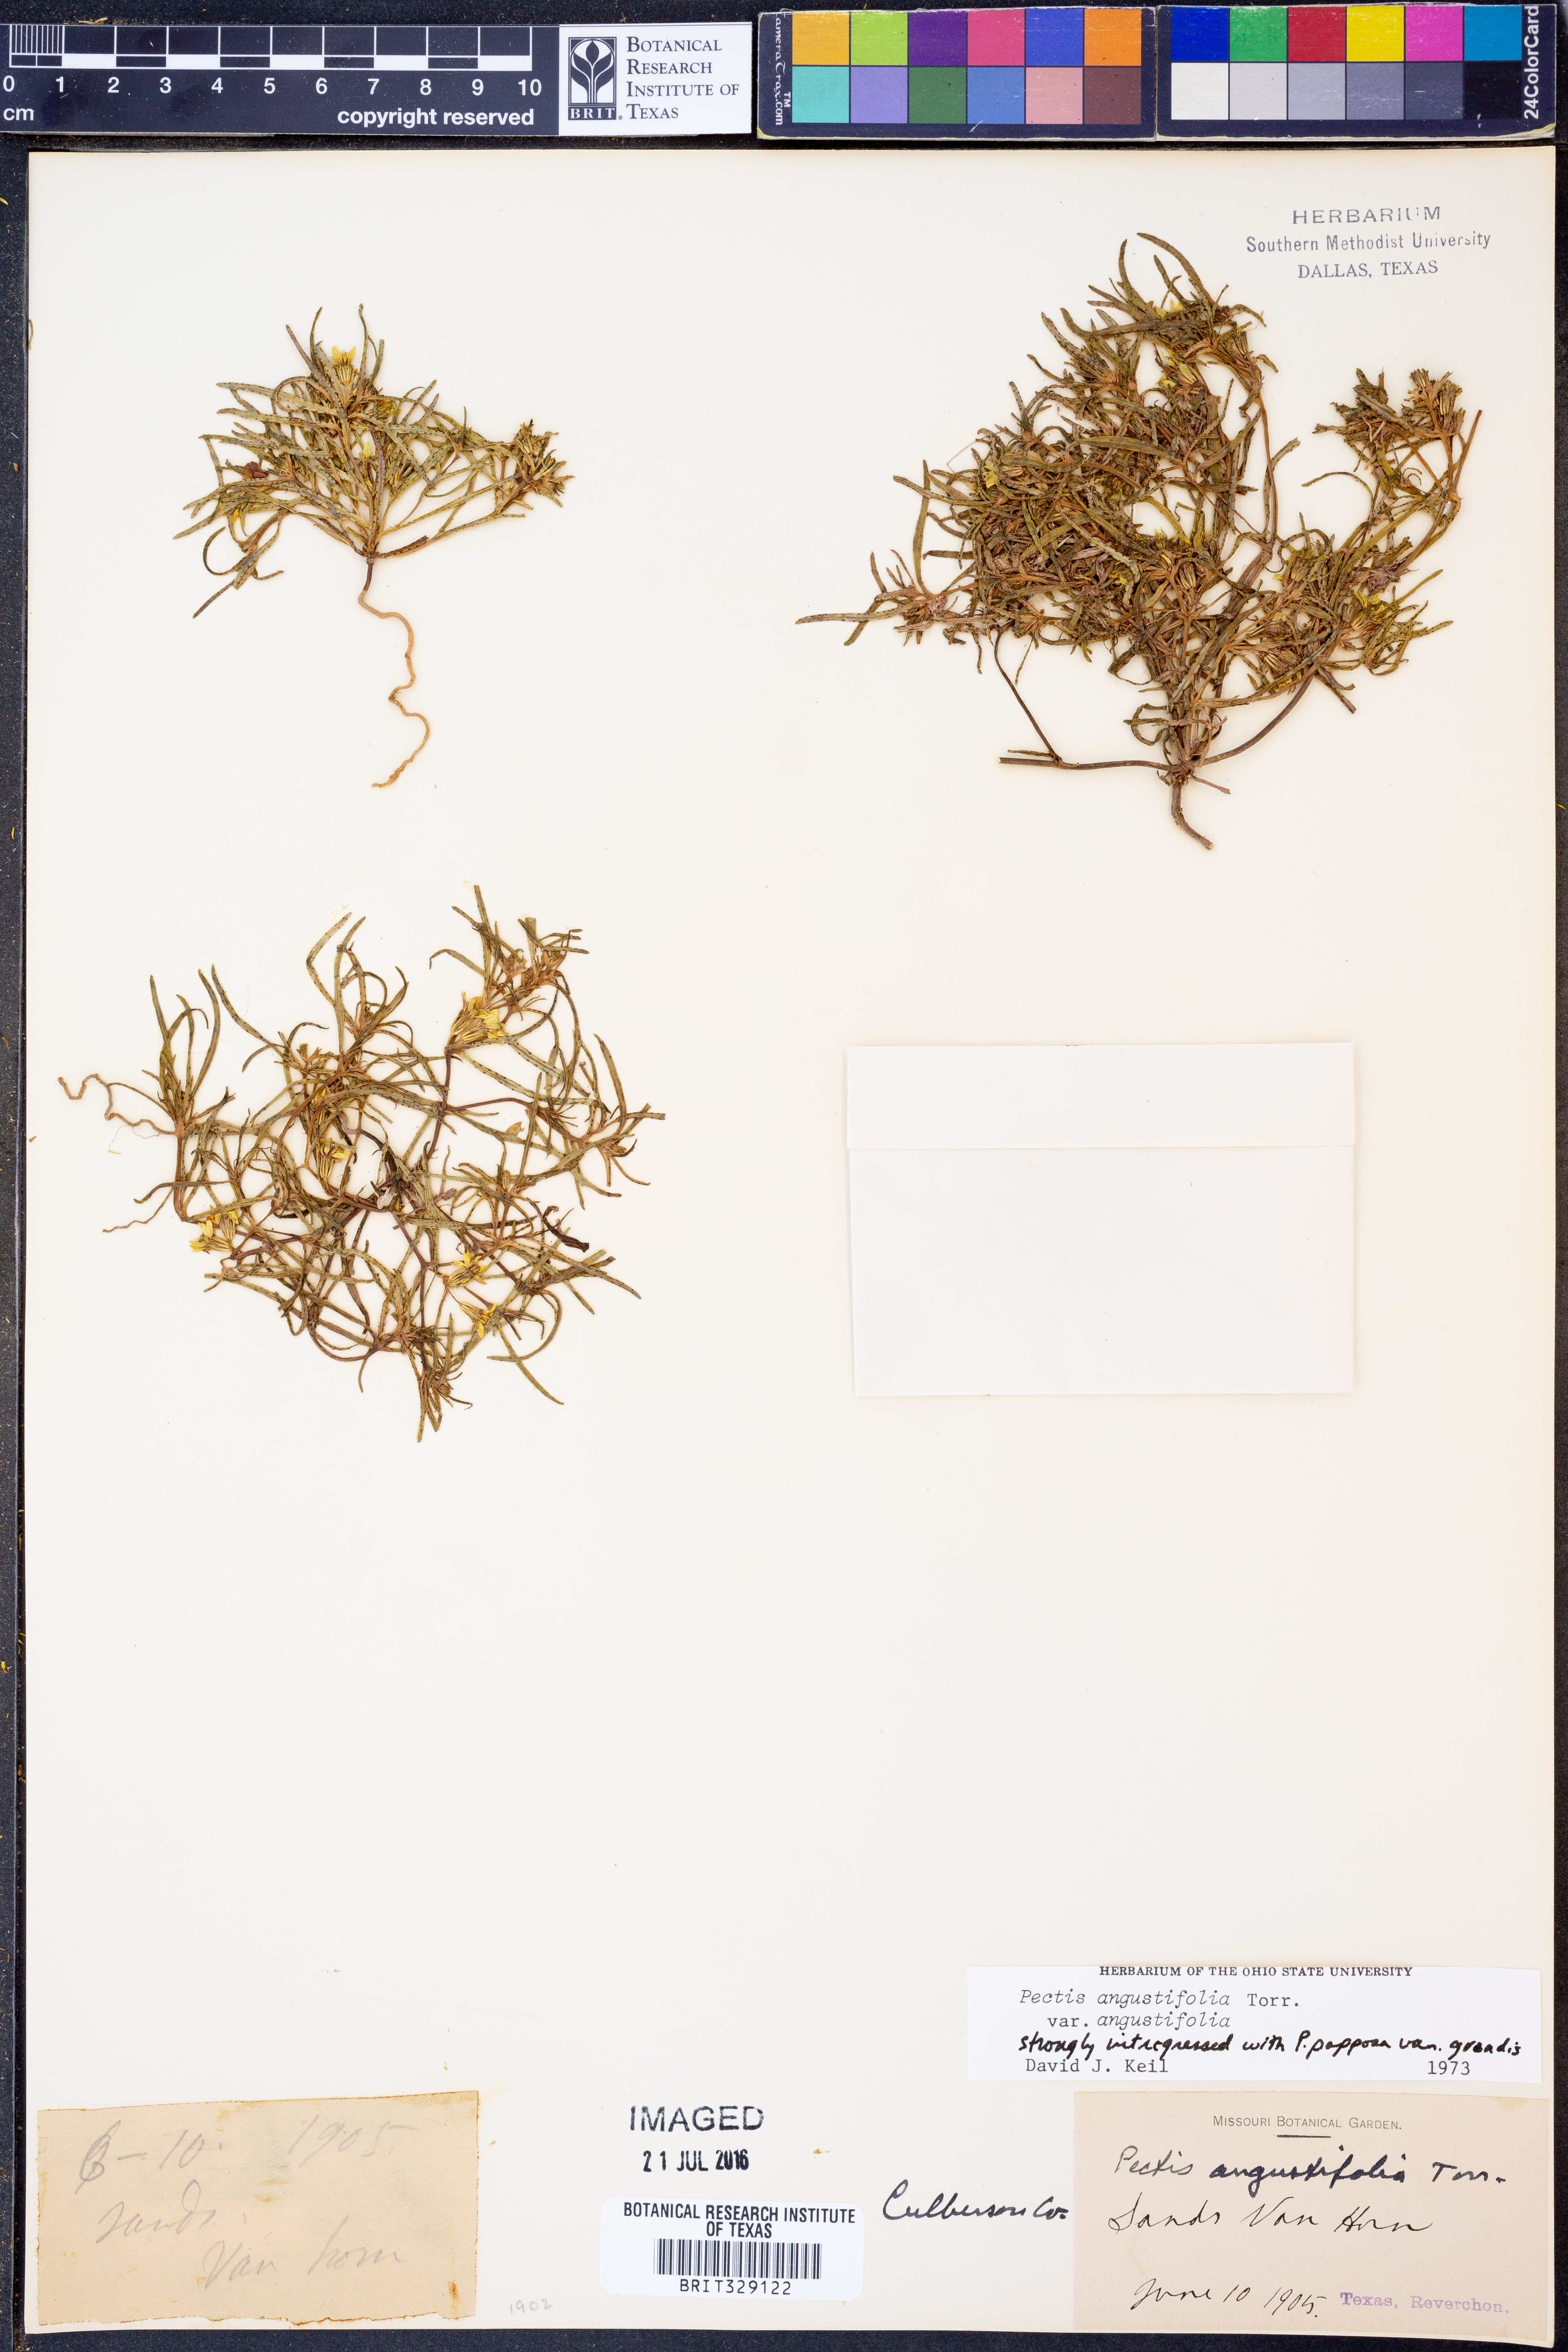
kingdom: Plantae
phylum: Tracheophyta
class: Magnoliopsida
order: Asterales
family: Asteraceae
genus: Pectis
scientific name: Pectis angustifolia
